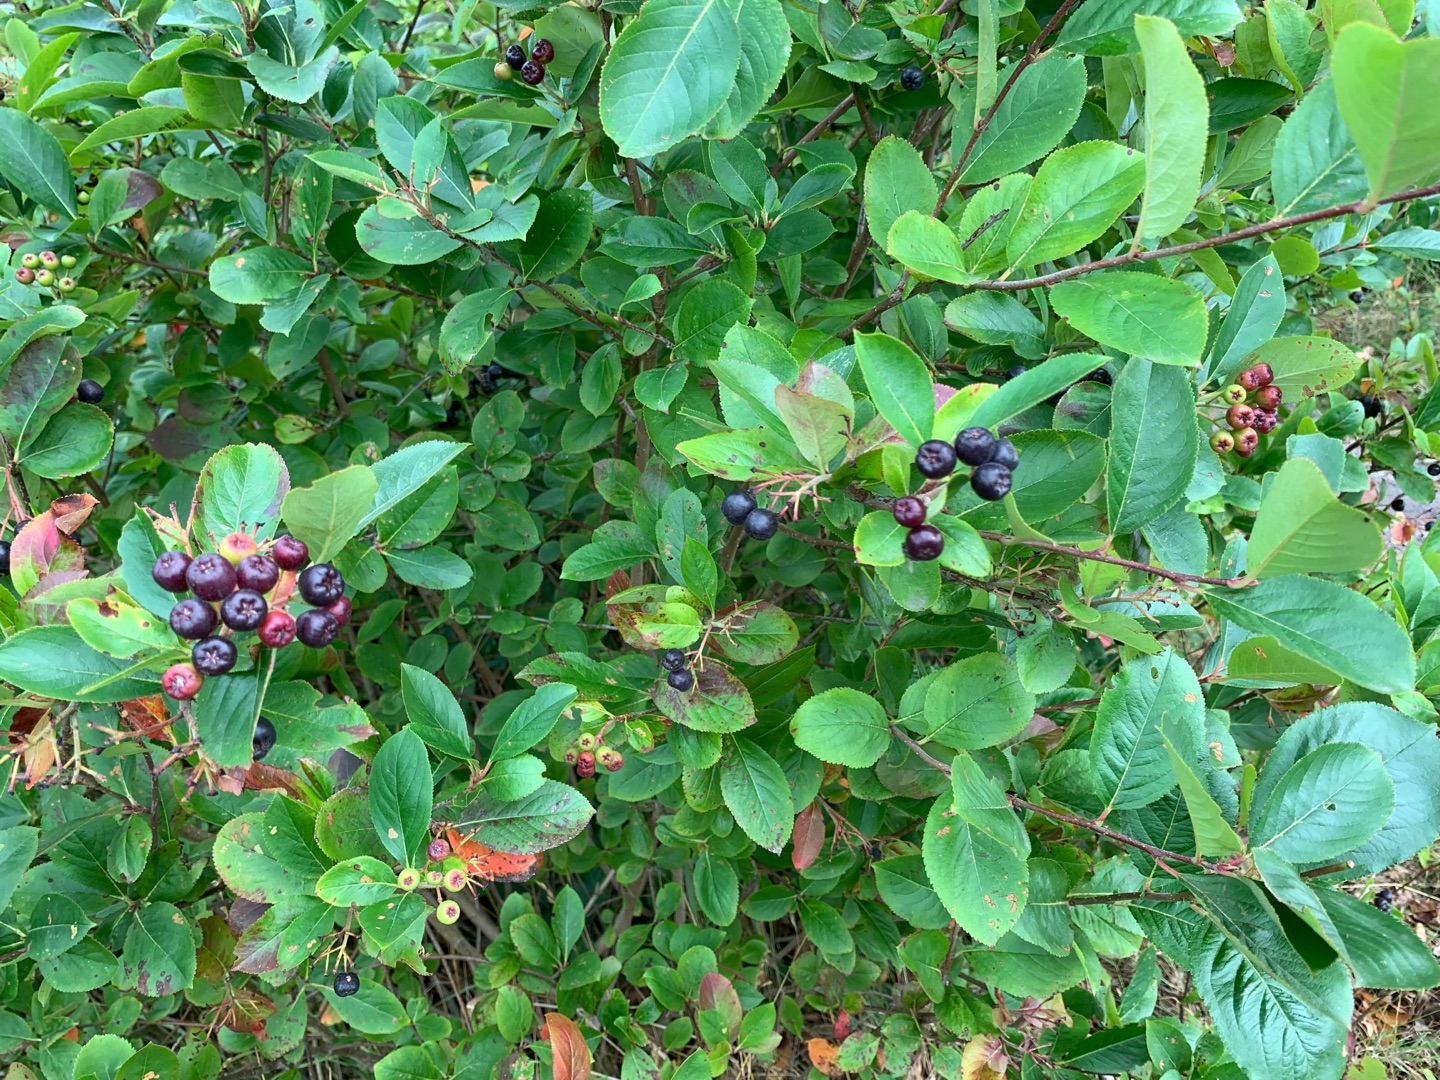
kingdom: Plantae
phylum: Tracheophyta
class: Magnoliopsida
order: Rosales
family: Rosaceae
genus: Aronia
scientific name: Aronia melanocarpa
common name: Sortfrugtet surbær
